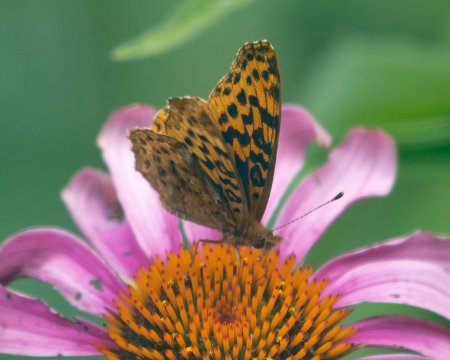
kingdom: Animalia
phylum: Arthropoda
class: Insecta
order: Lepidoptera
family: Nymphalidae
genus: Clossiana
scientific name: Clossiana toddi
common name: Meadow Fritillary
